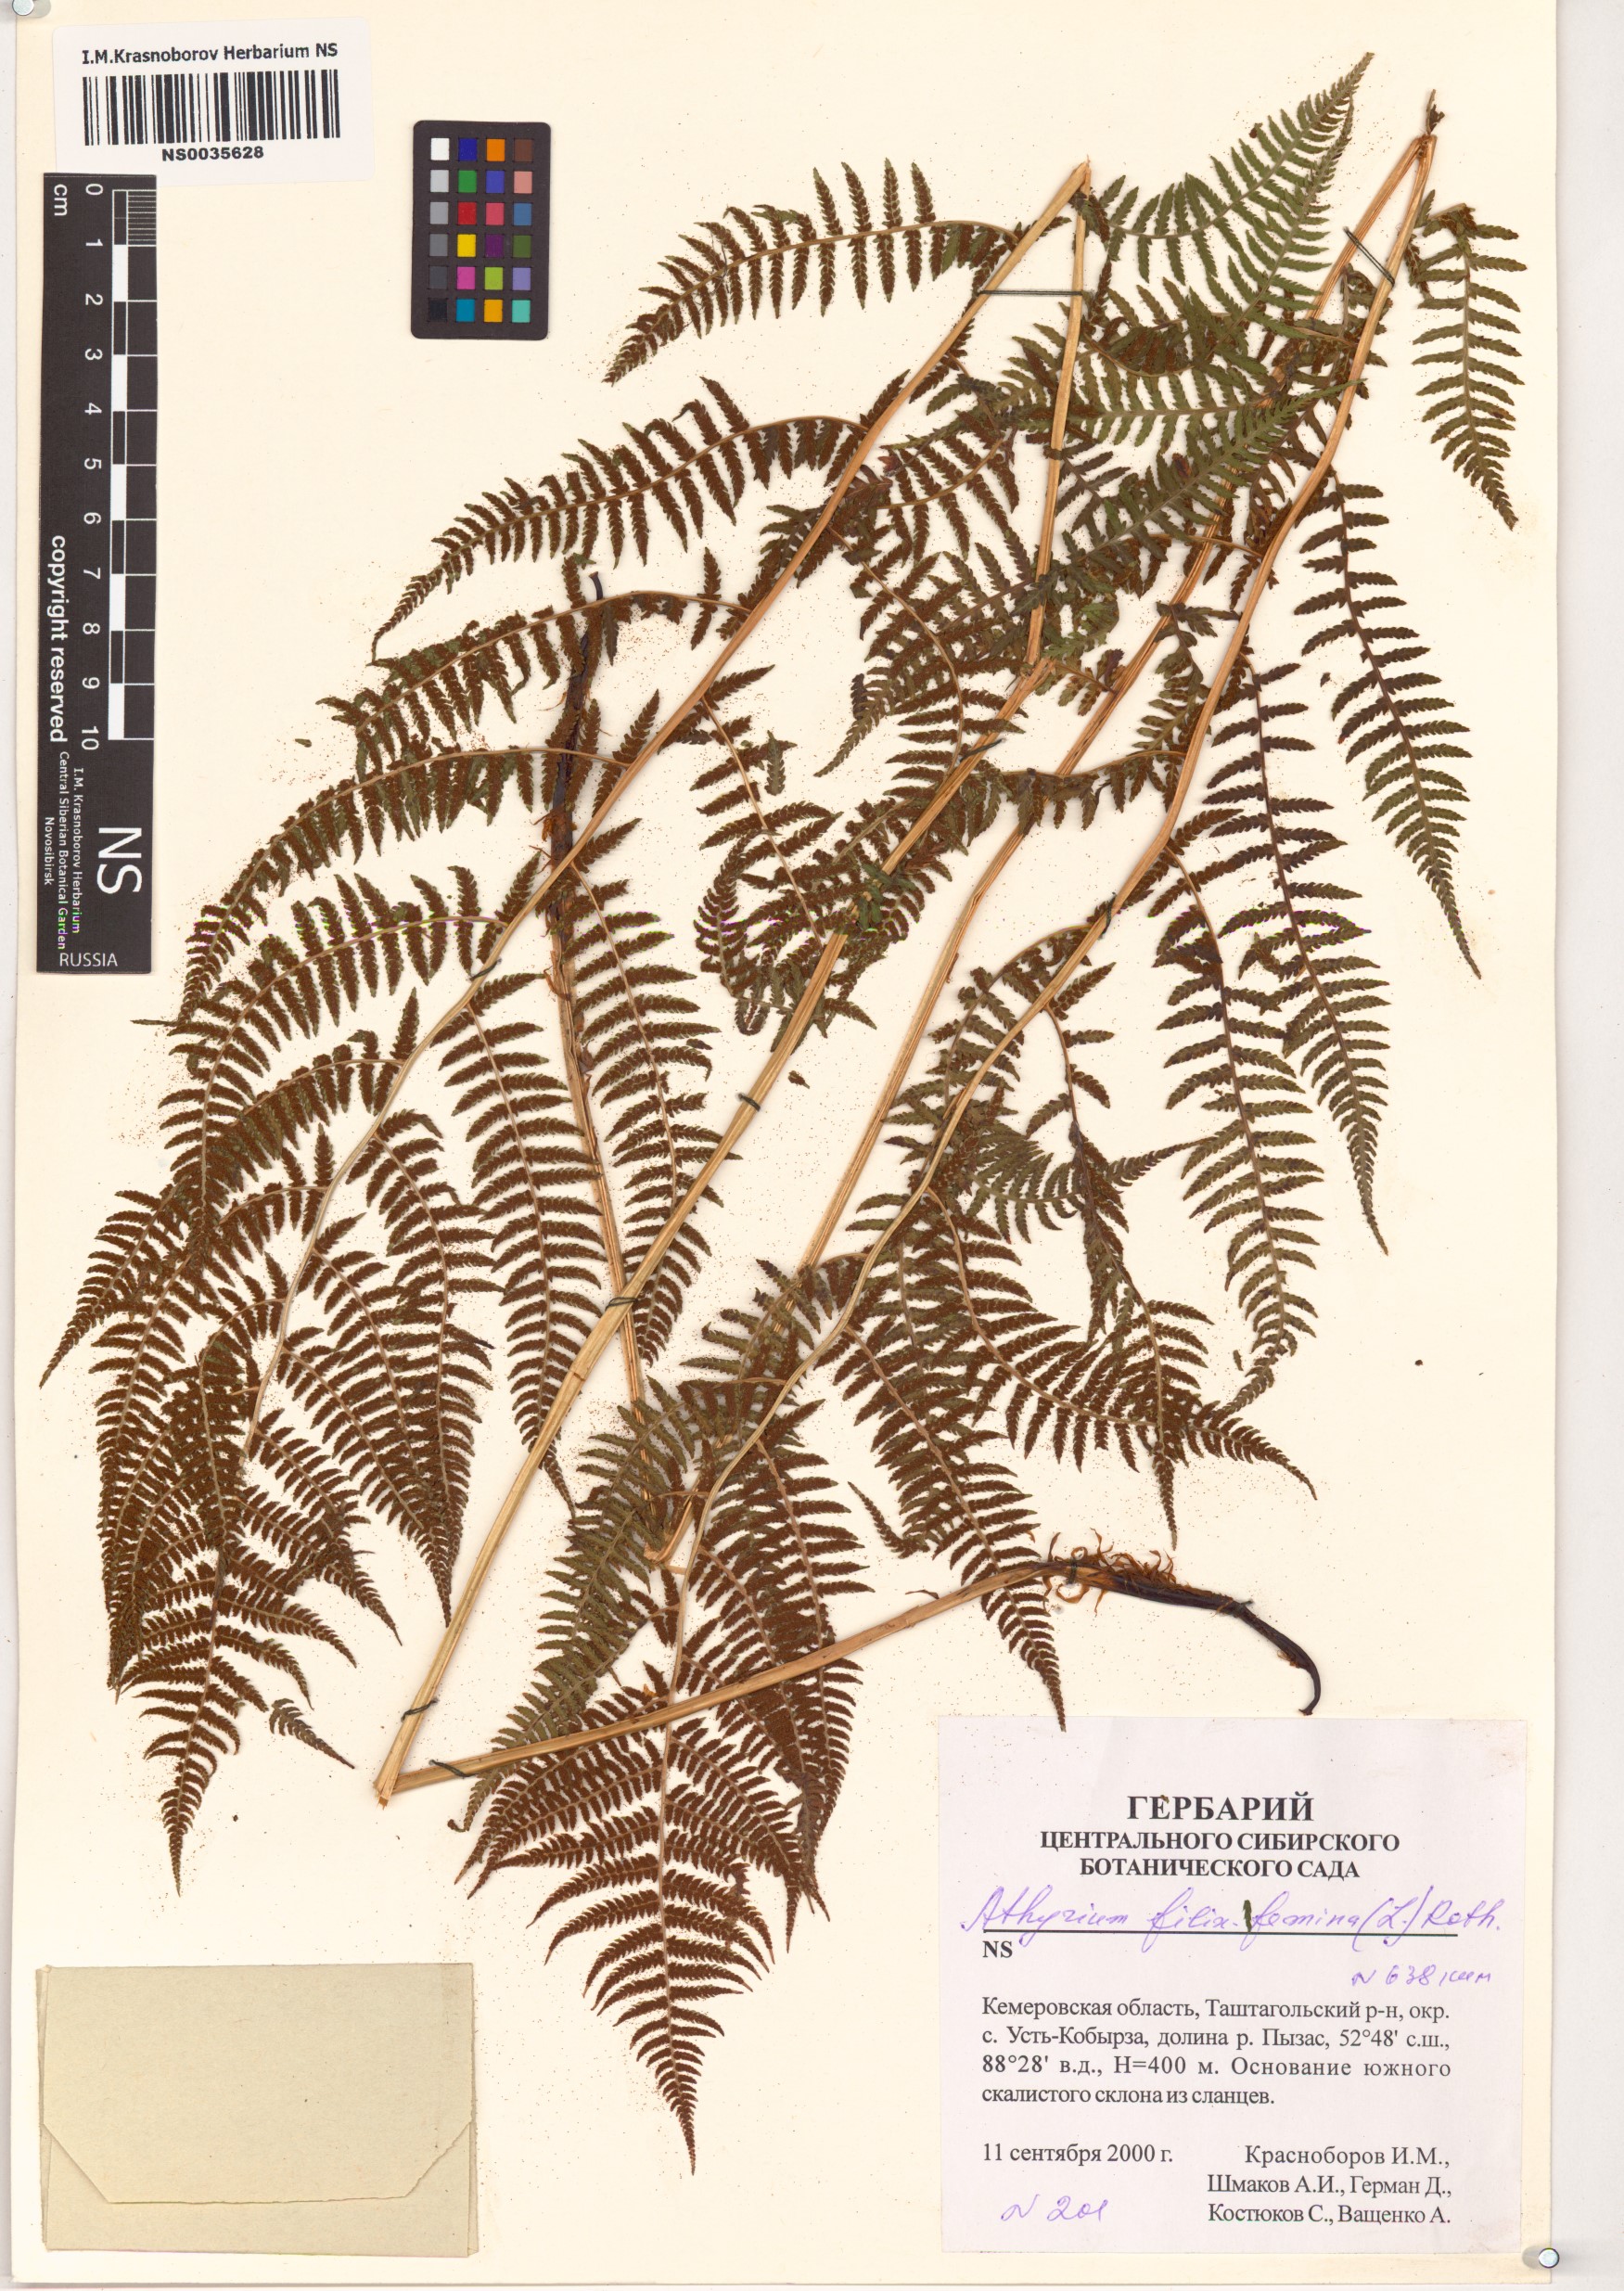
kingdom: Plantae
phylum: Tracheophyta
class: Polypodiopsida
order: Polypodiales
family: Athyriaceae
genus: Athyrium
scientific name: Athyrium filix-femina
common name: Lady fern
